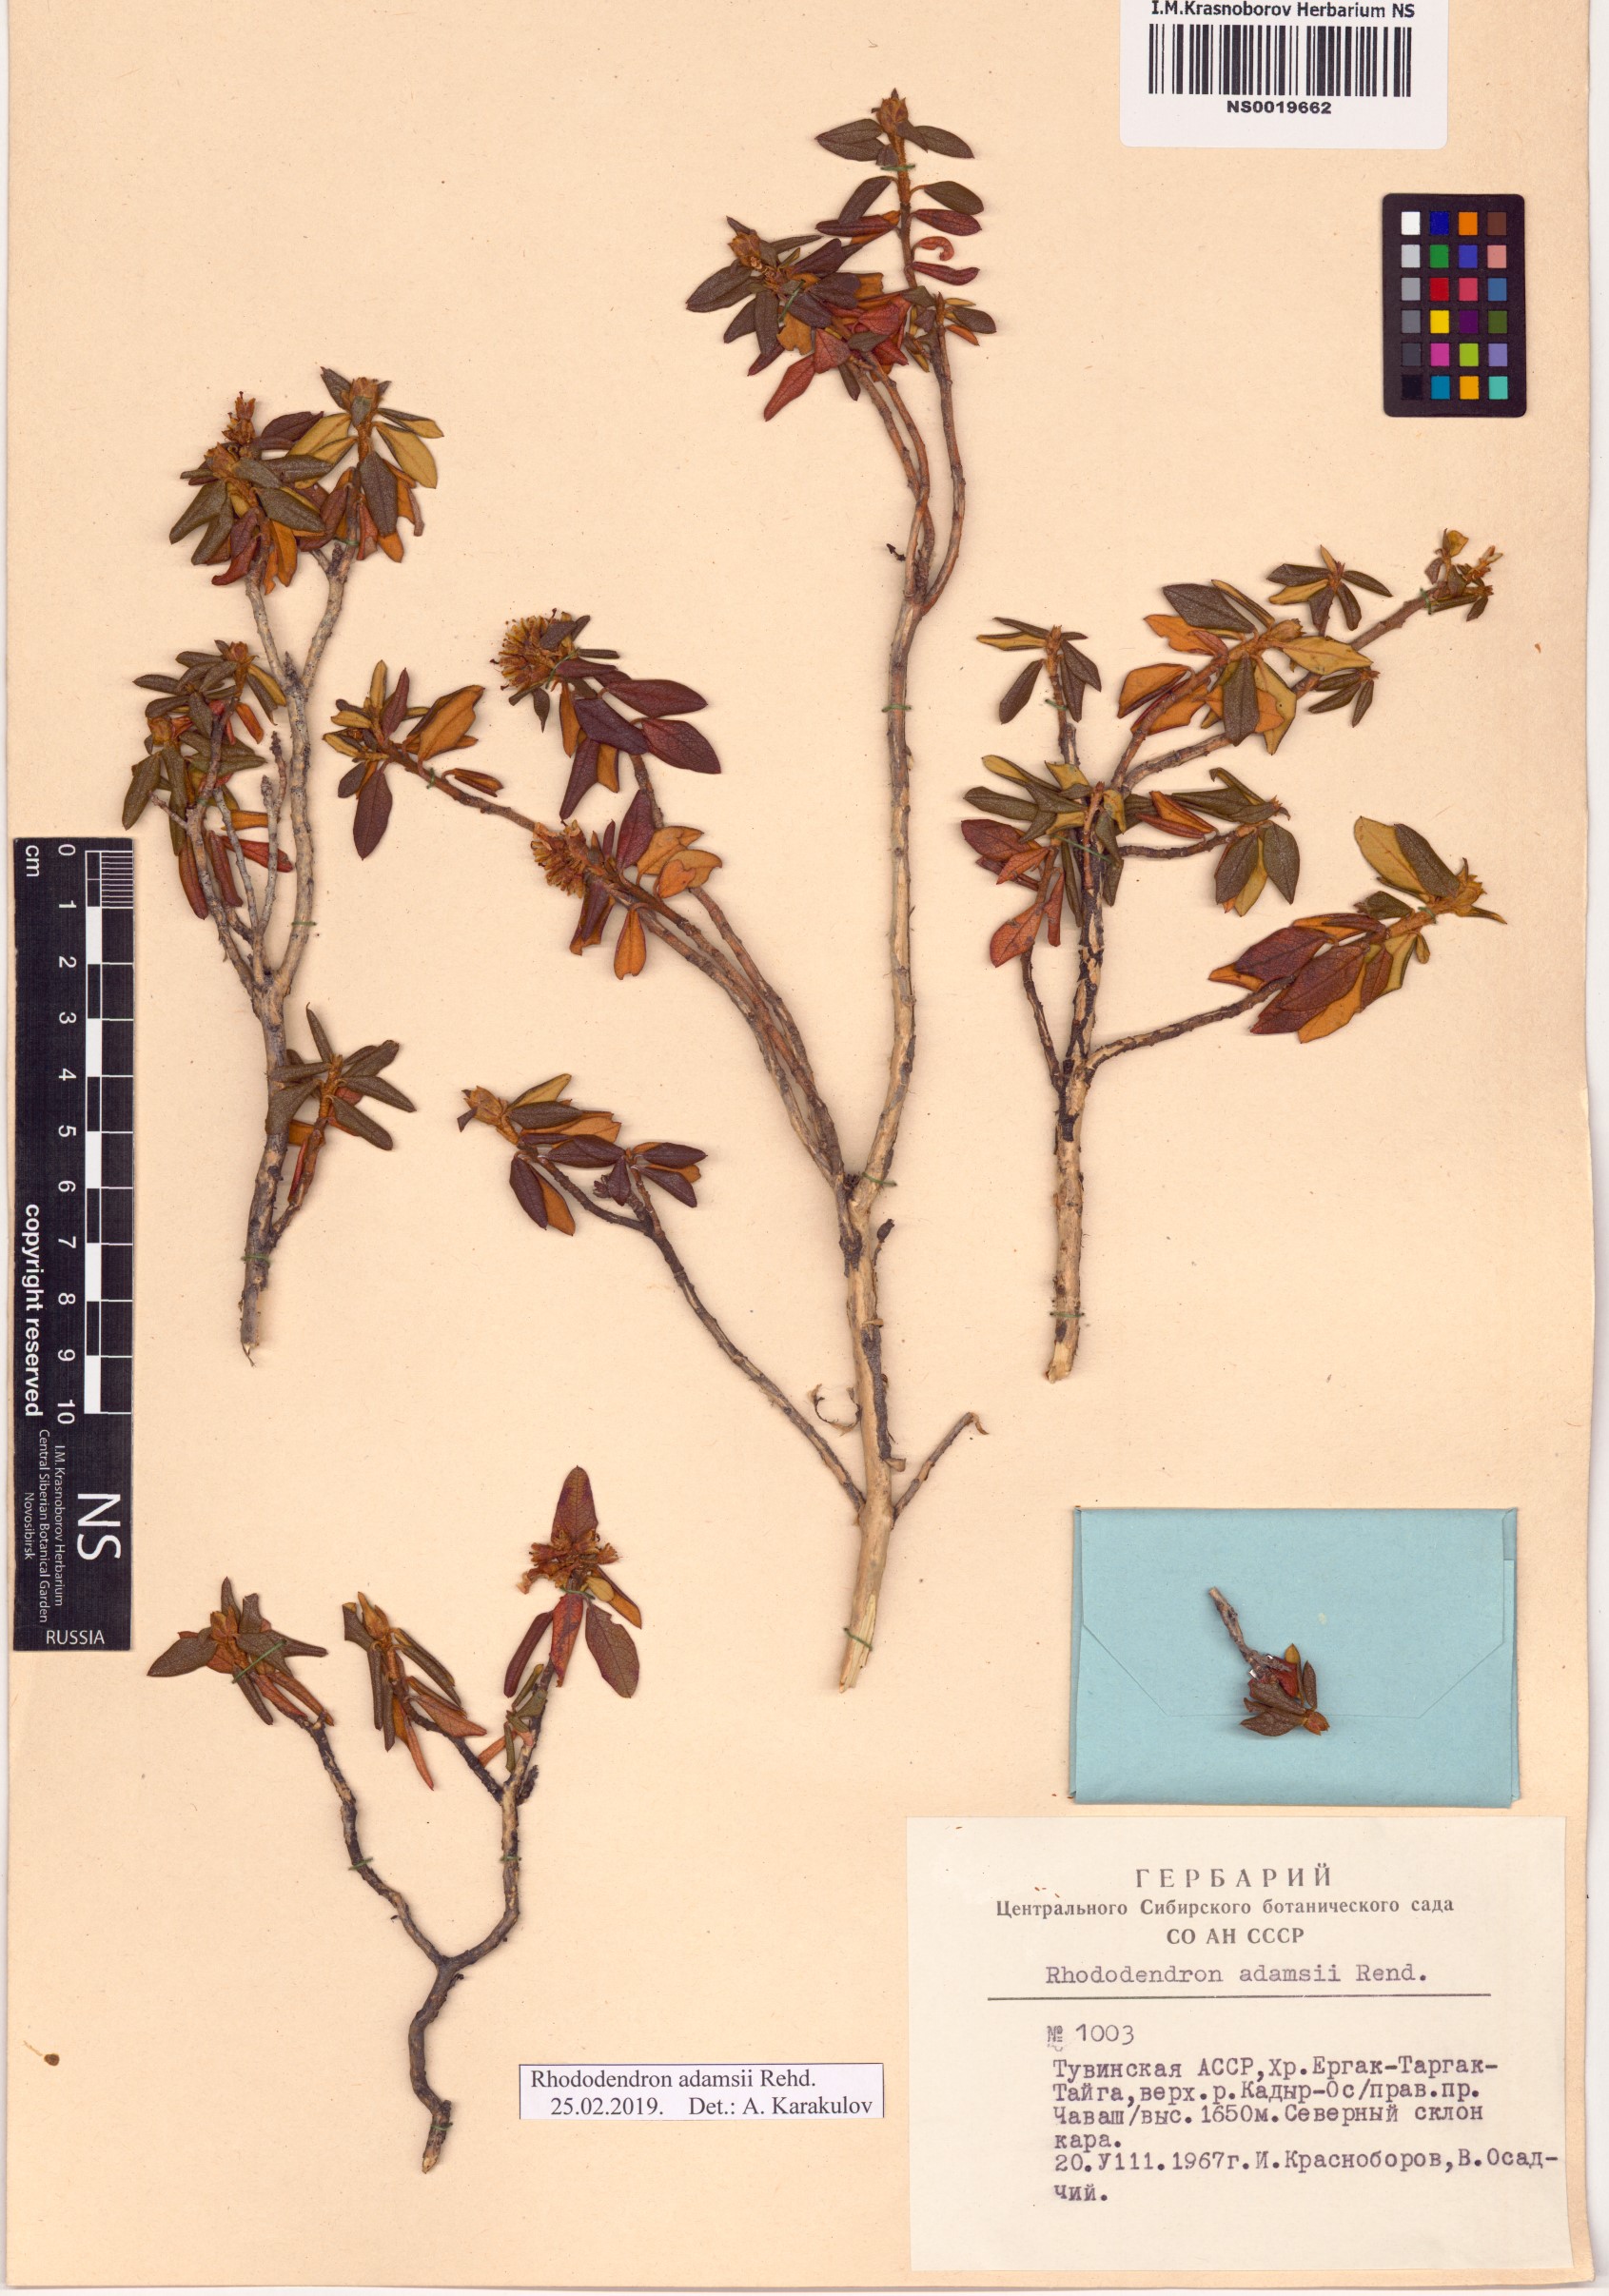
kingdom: Plantae
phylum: Tracheophyta
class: Magnoliopsida
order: Ericales
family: Ericaceae
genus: Rhododendron
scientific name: Rhododendron adamsii
